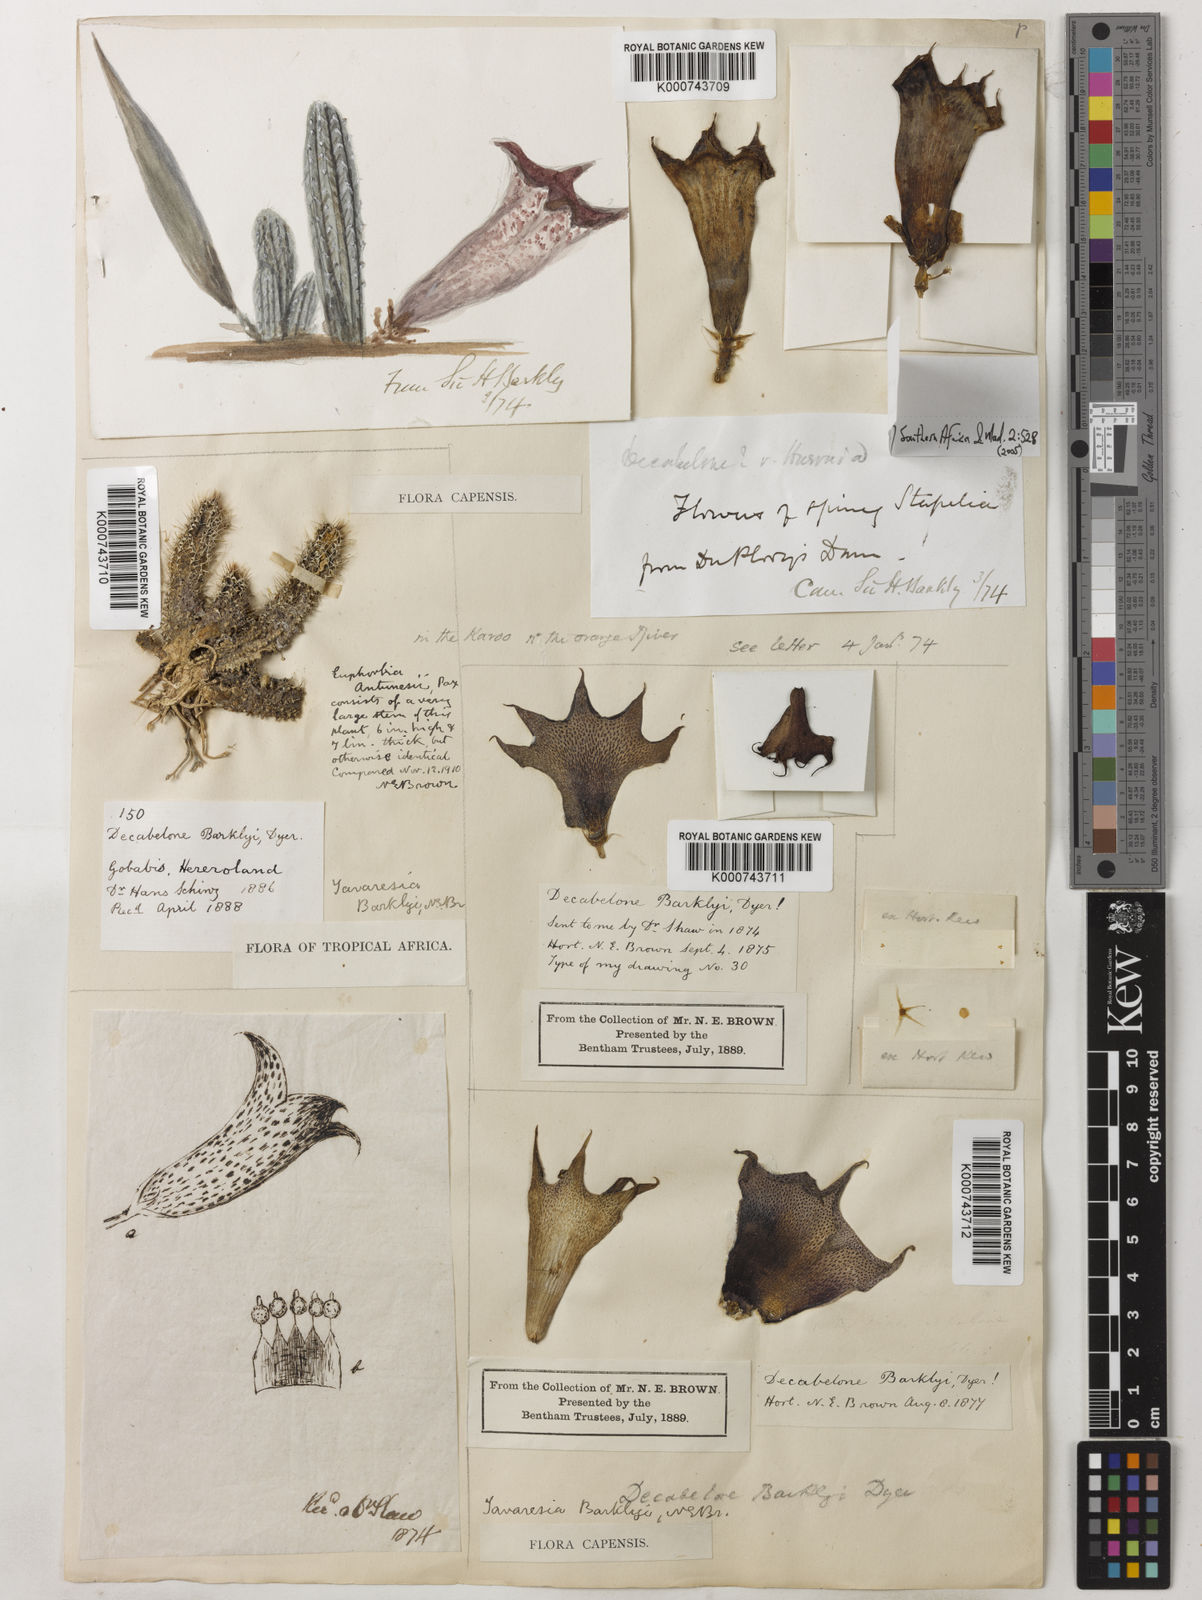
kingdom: Plantae
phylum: Tracheophyta
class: Magnoliopsida
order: Gentianales
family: Apocynaceae
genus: Ceropegia
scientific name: Ceropegia barklyana
